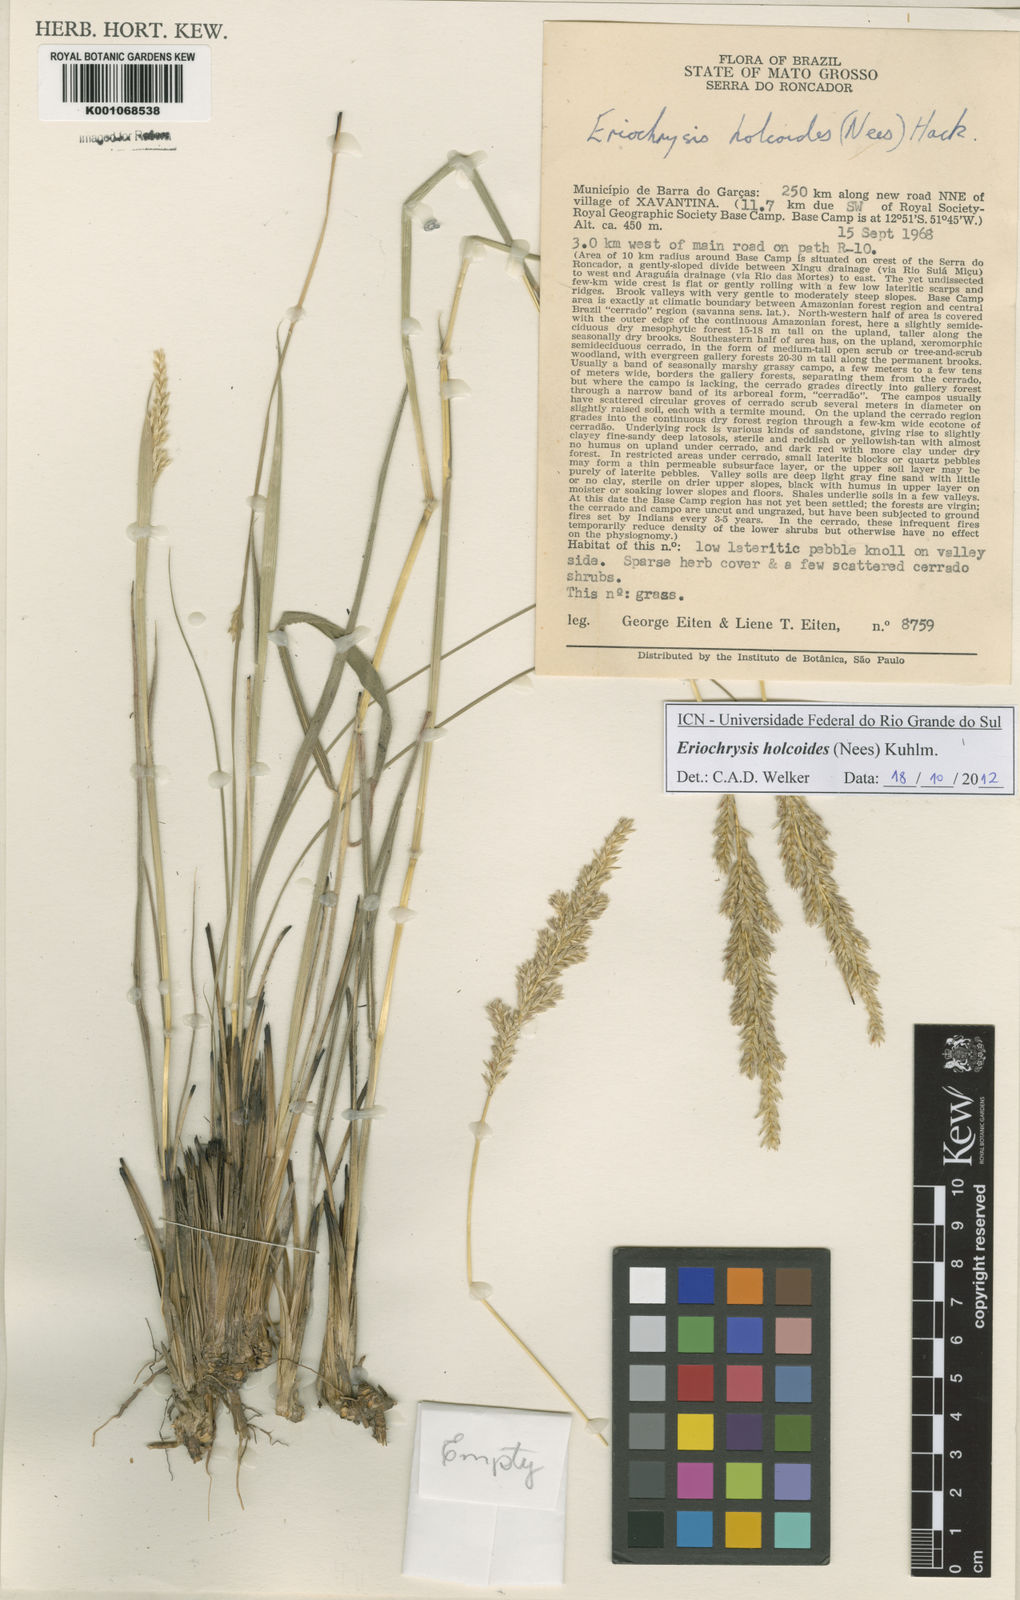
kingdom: Plantae
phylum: Tracheophyta
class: Liliopsida
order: Poales
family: Poaceae
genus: Eriochrysis
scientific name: Eriochrysis holcoides
